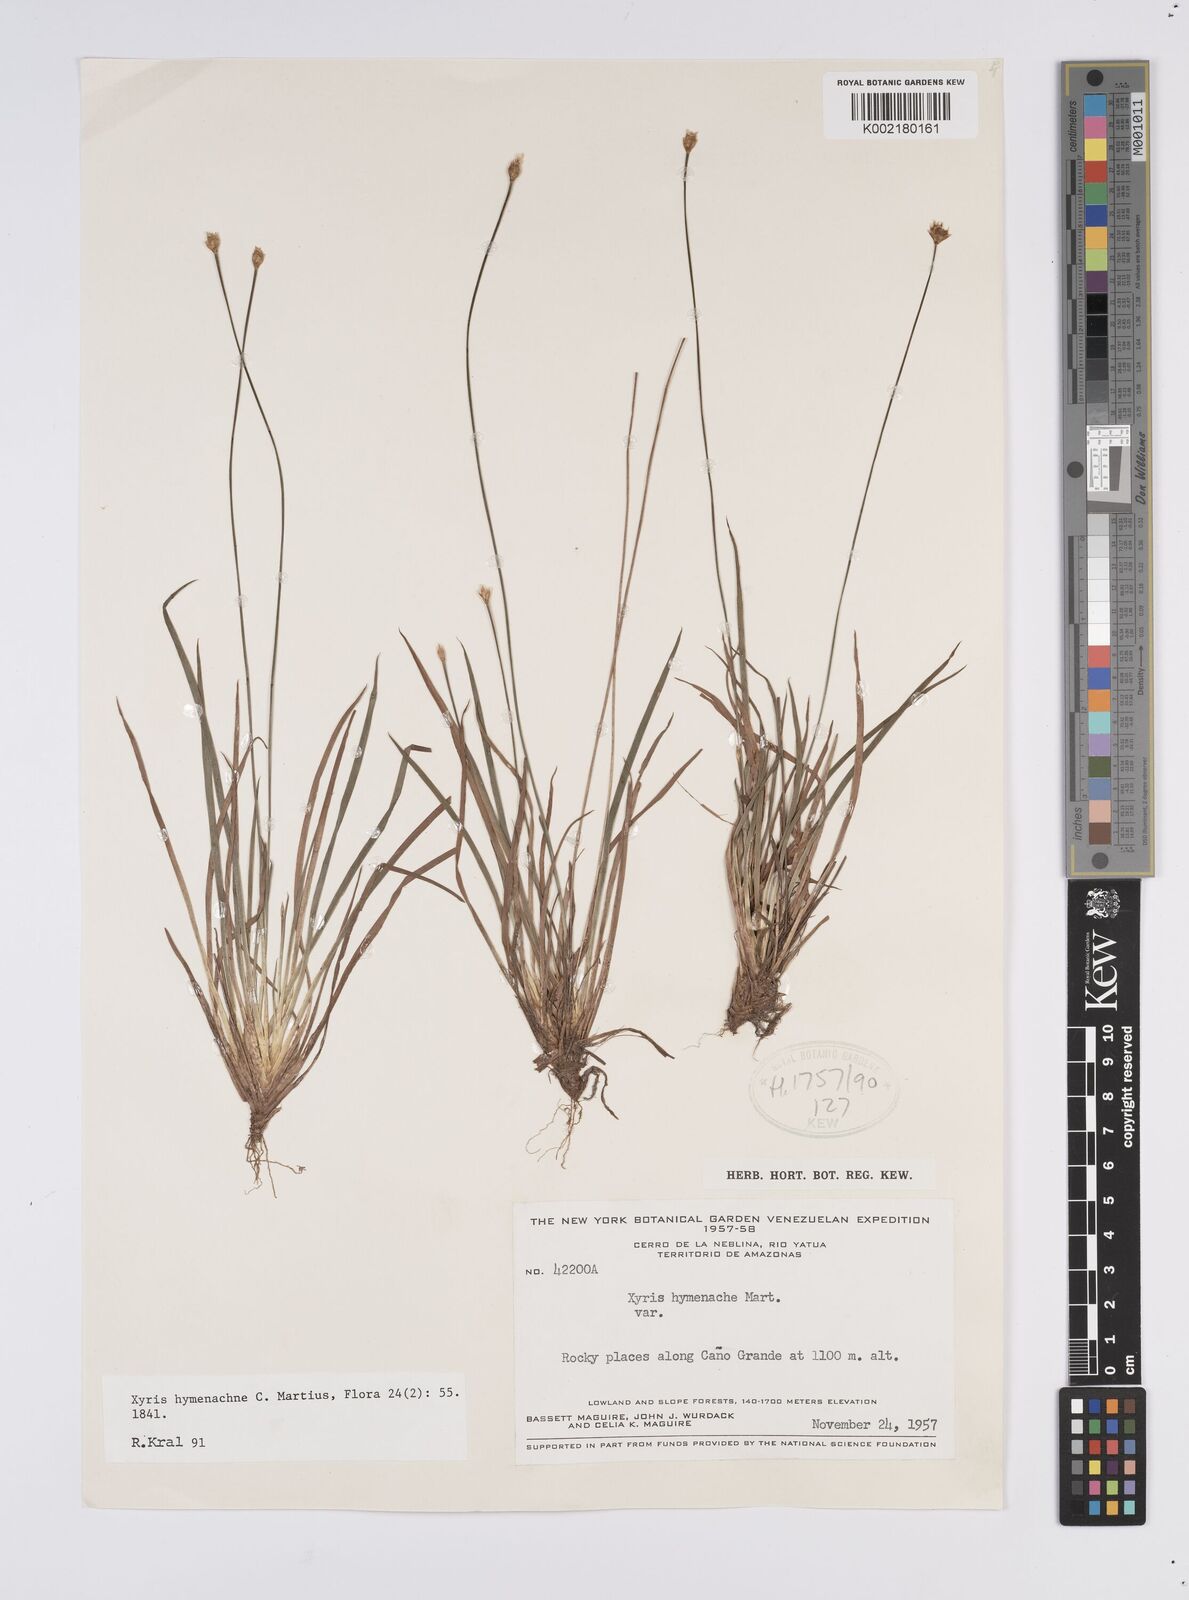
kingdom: Plantae
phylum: Tracheophyta
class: Liliopsida
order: Poales
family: Xyridaceae
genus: Xyris
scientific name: Xyris hymenachne
